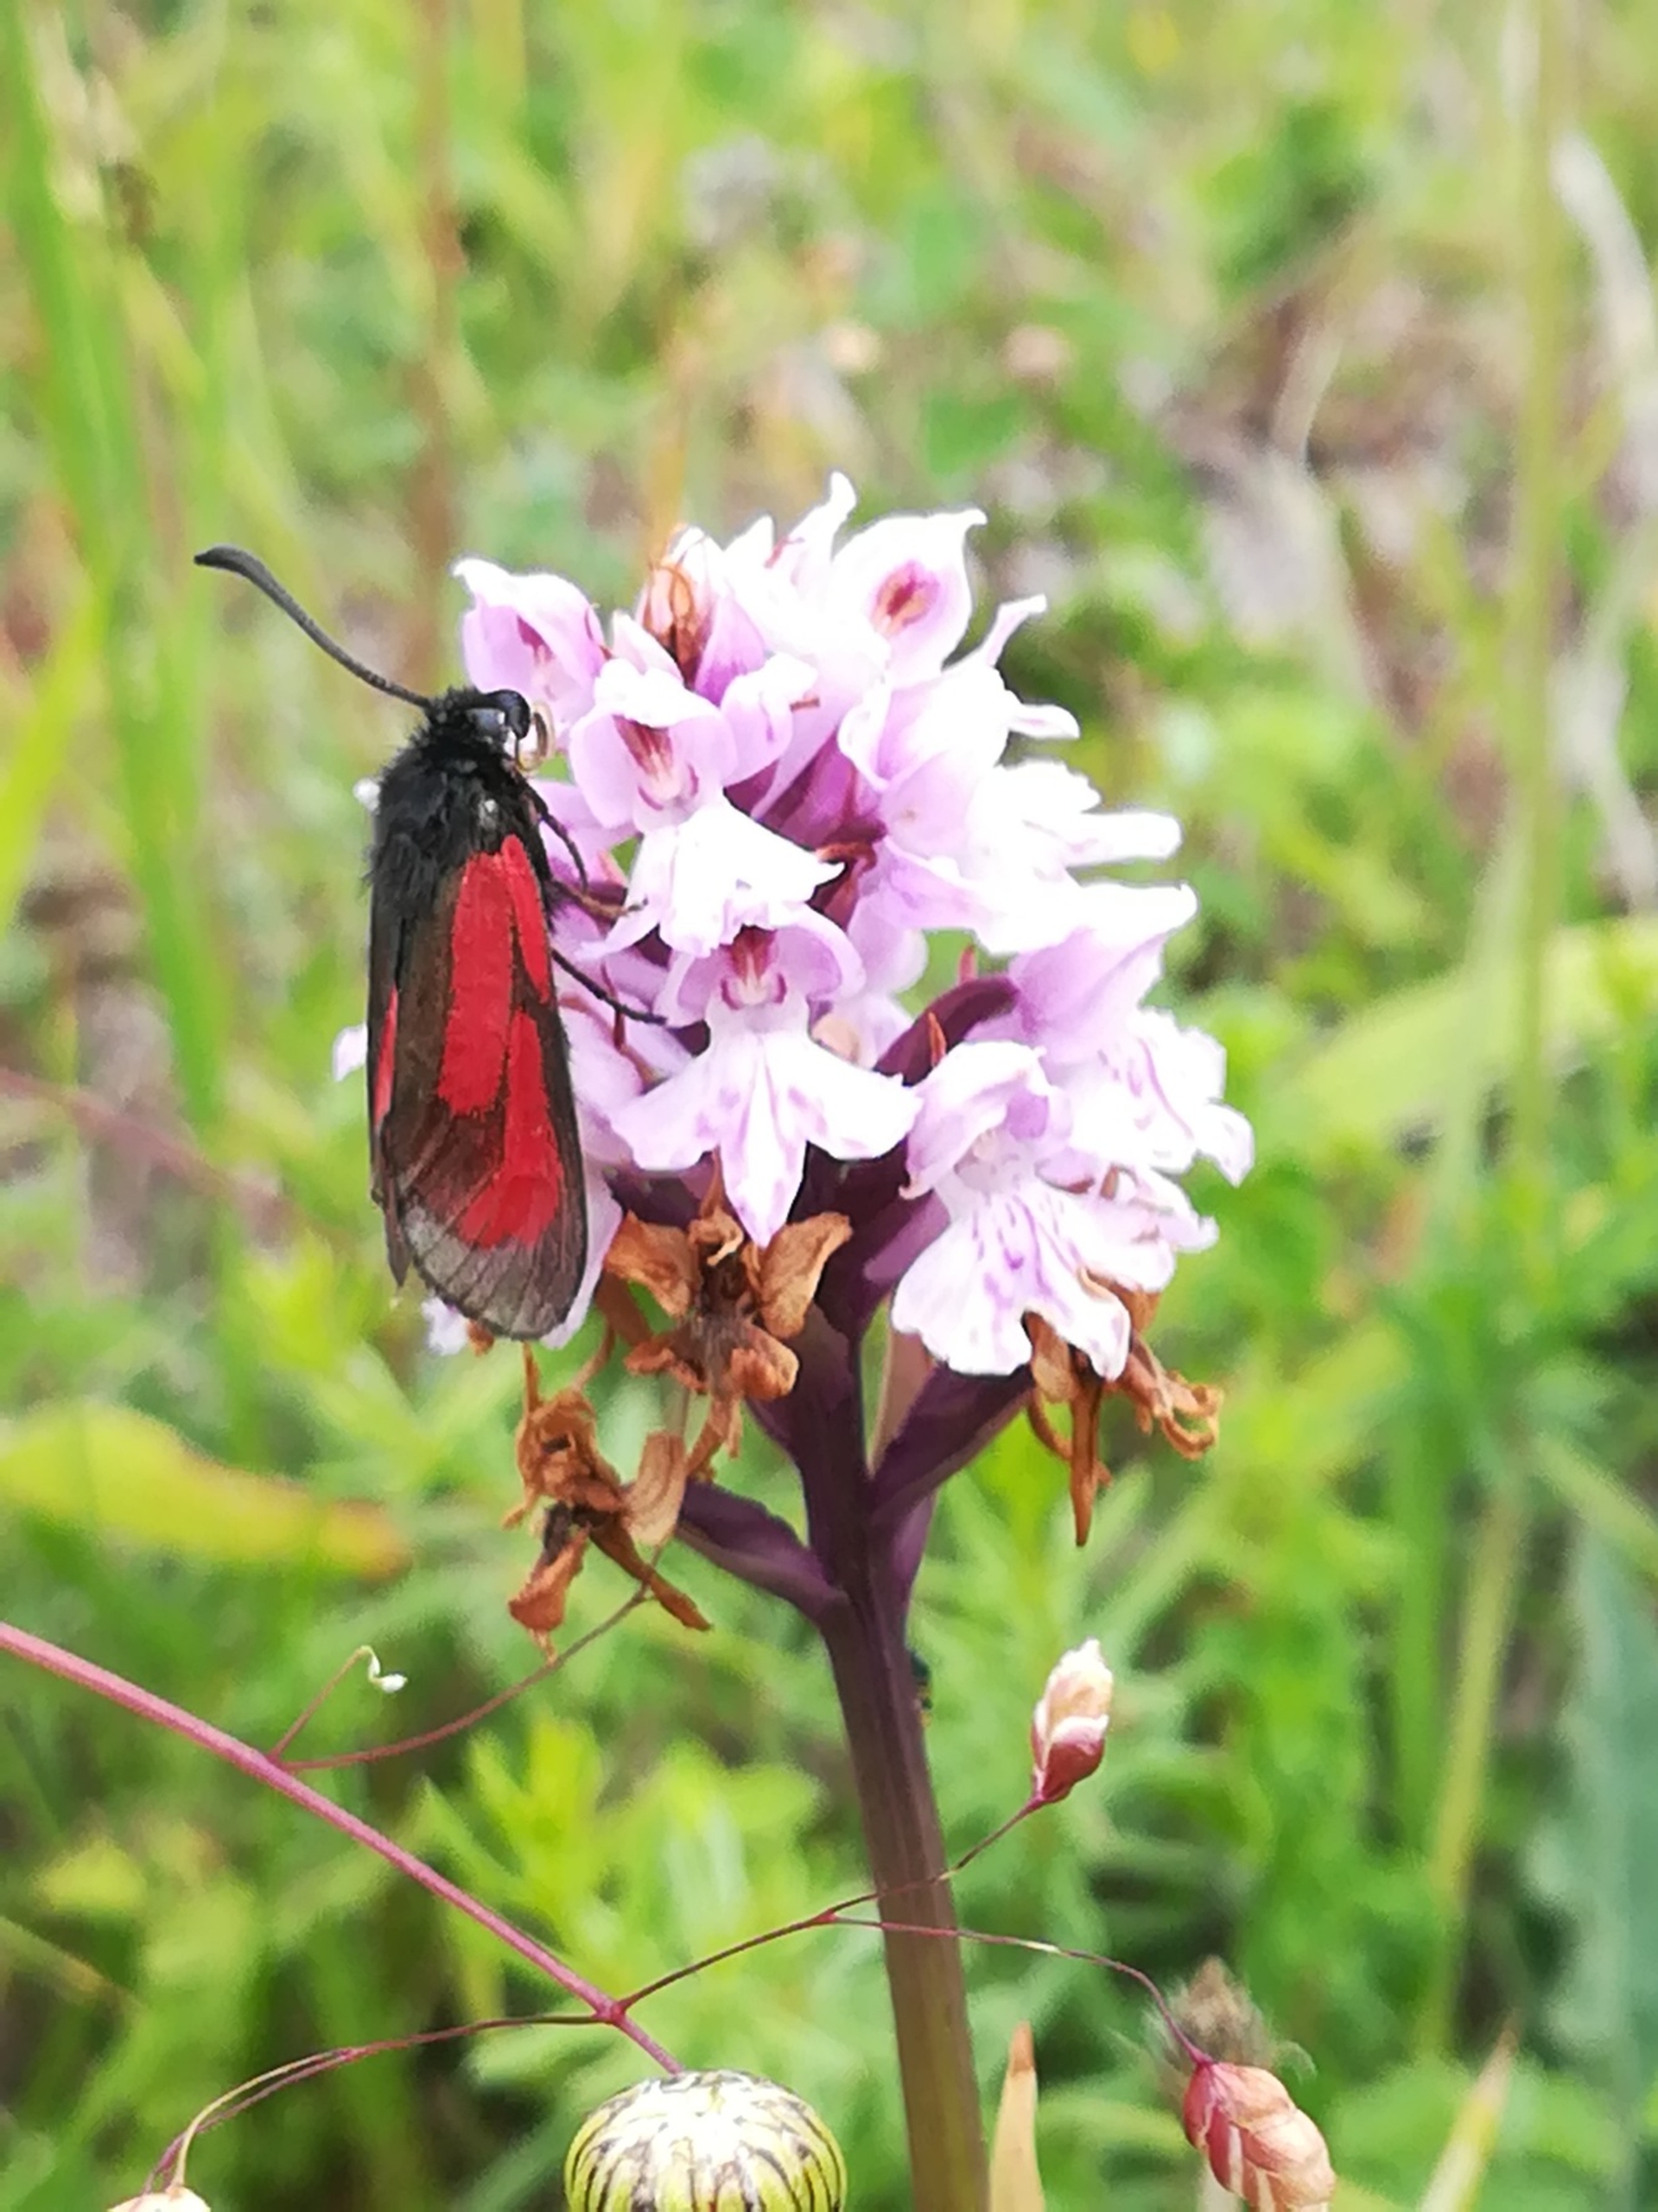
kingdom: Animalia
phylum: Arthropoda
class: Insecta
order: Lepidoptera
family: Zygaenidae
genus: Zygaena
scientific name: Zygaena purpuralis
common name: Timiankøllesværmer
